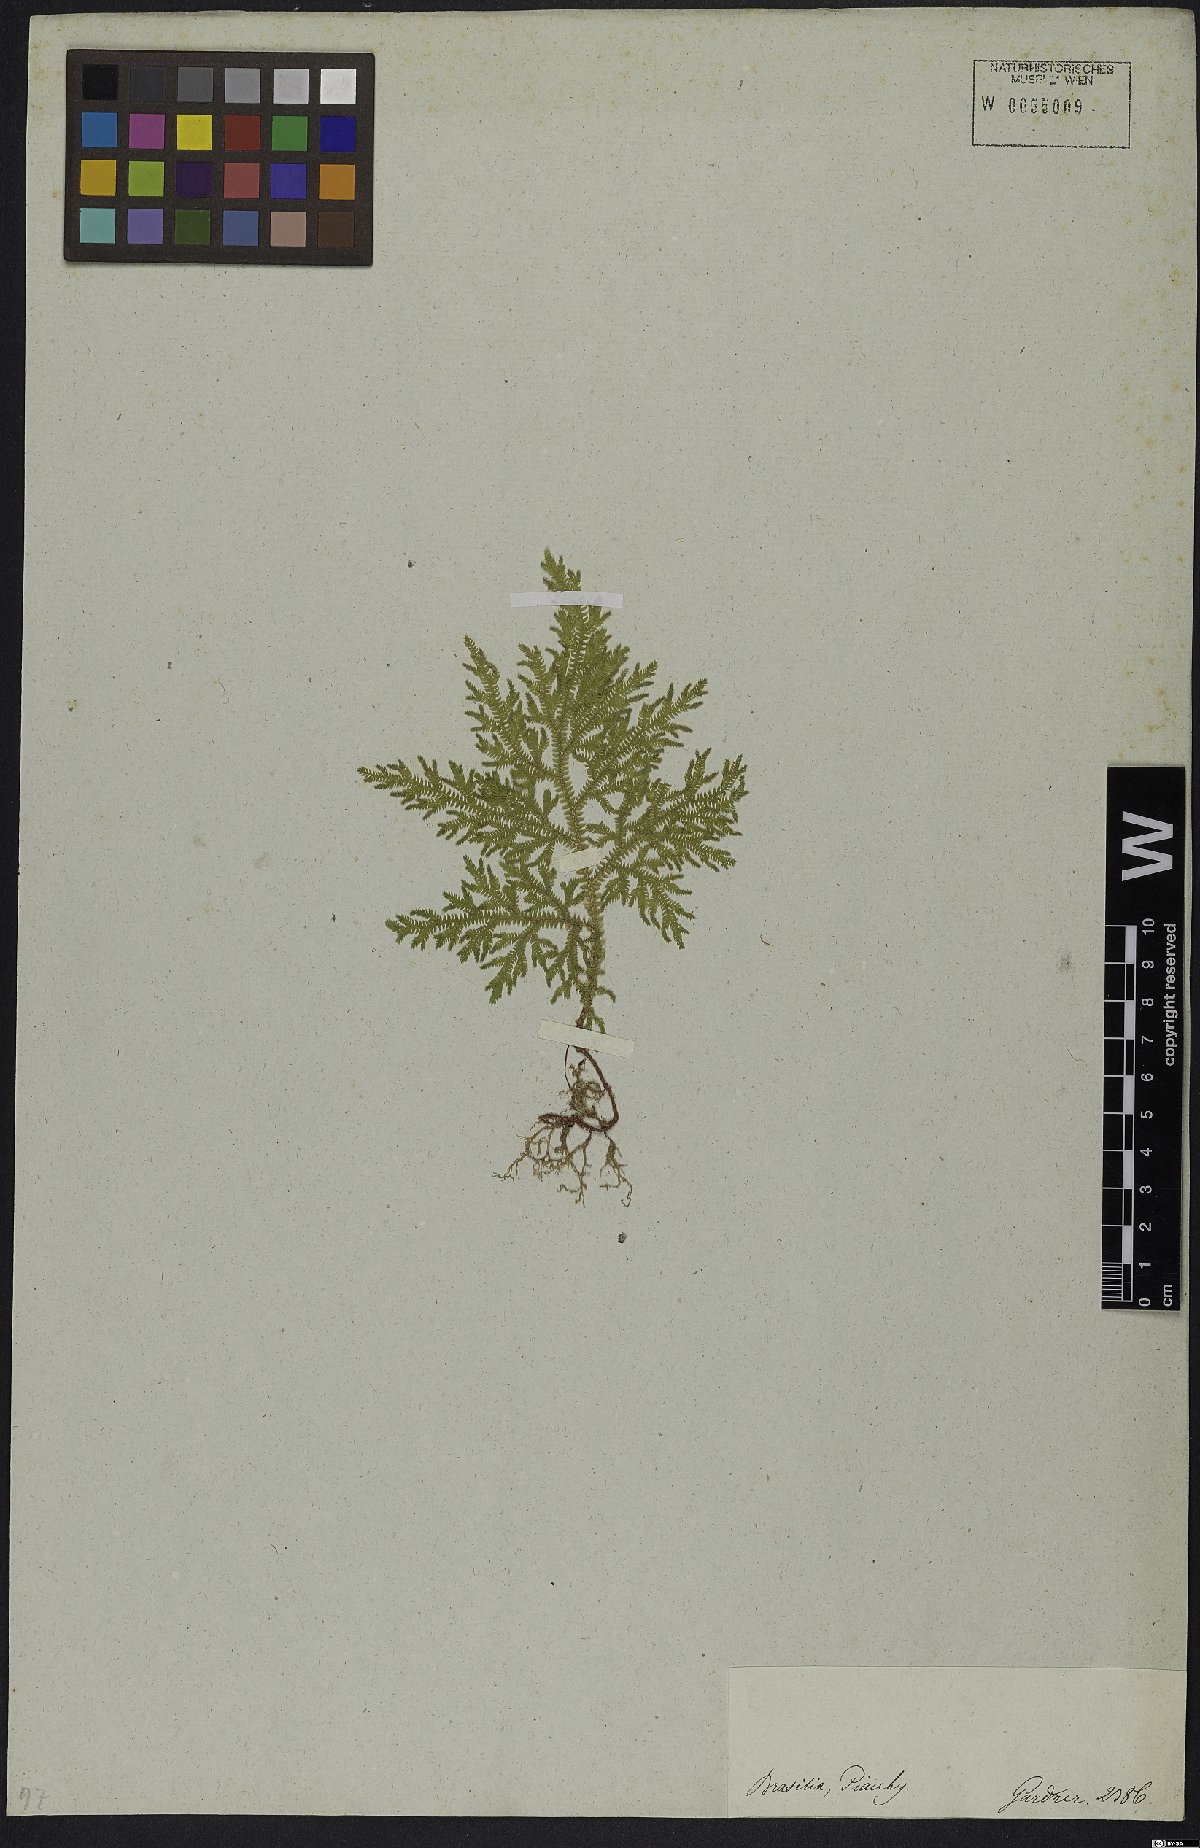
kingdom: Plantae
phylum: Tracheophyta
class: Lycopodiopsida
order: Selaginellales
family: Selaginellaceae
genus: Selaginella
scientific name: Selaginella erythropus
